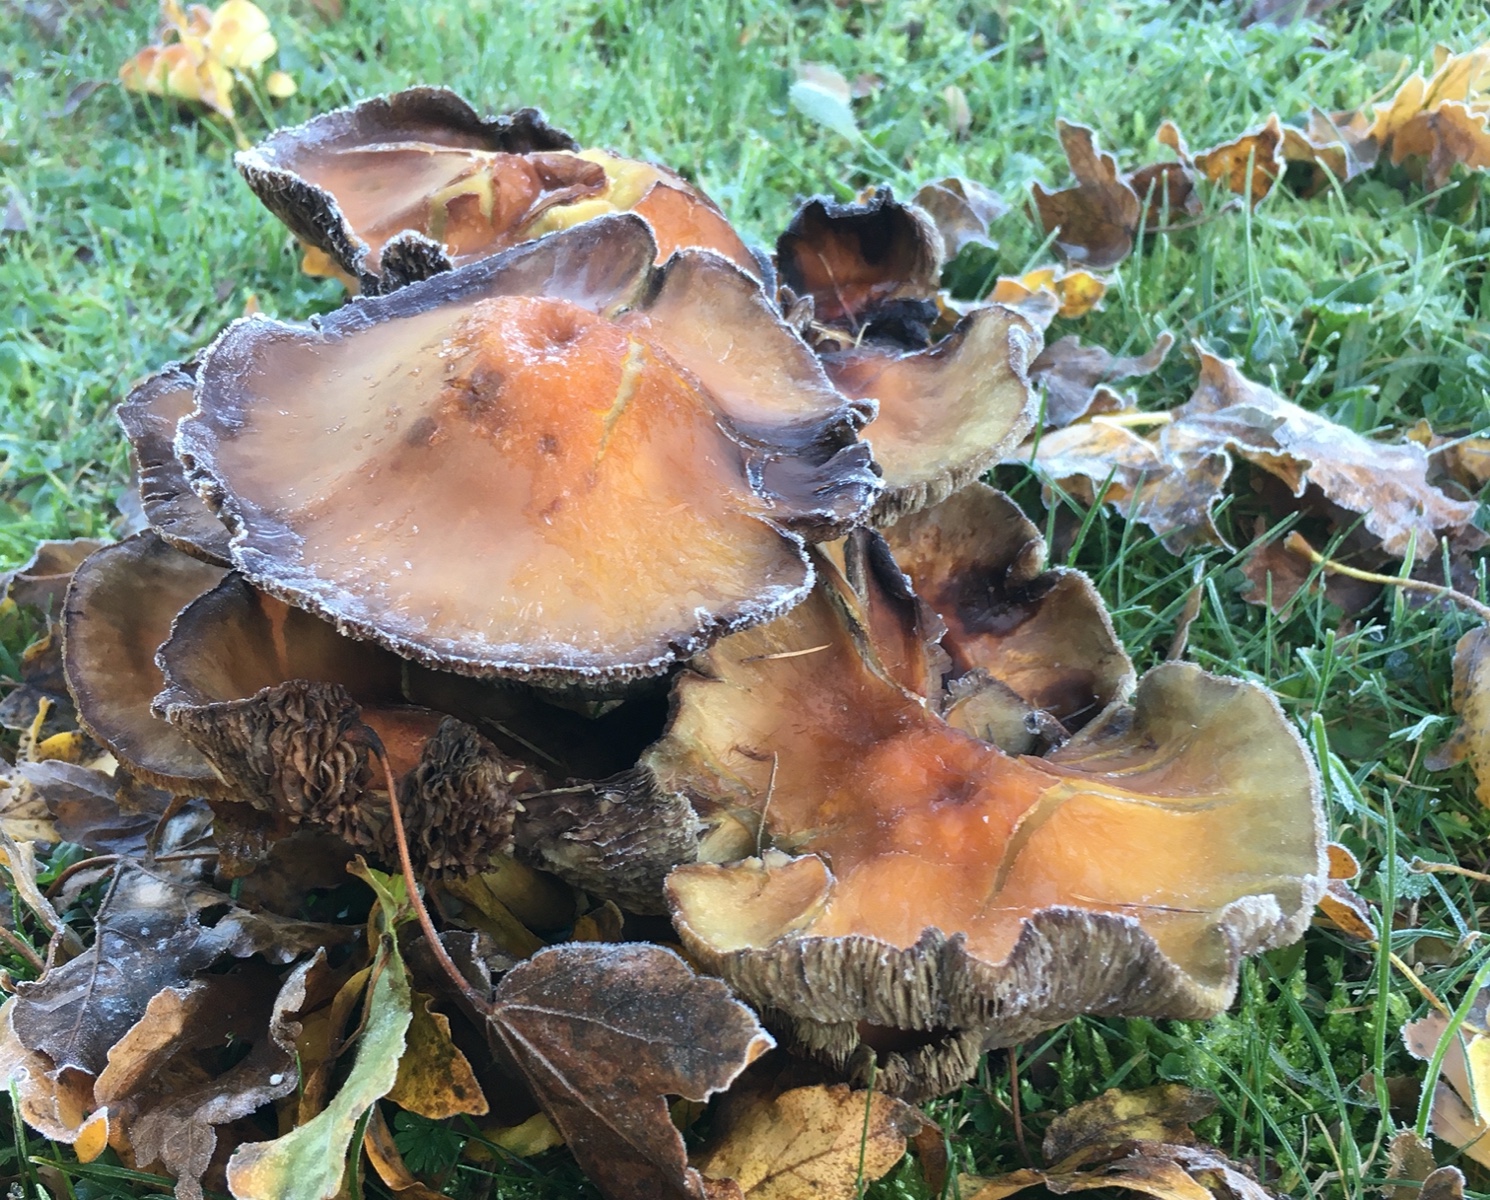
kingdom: Fungi
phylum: Basidiomycota
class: Agaricomycetes
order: Agaricales
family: Strophariaceae
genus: Hypholoma
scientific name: Hypholoma fasciculare
